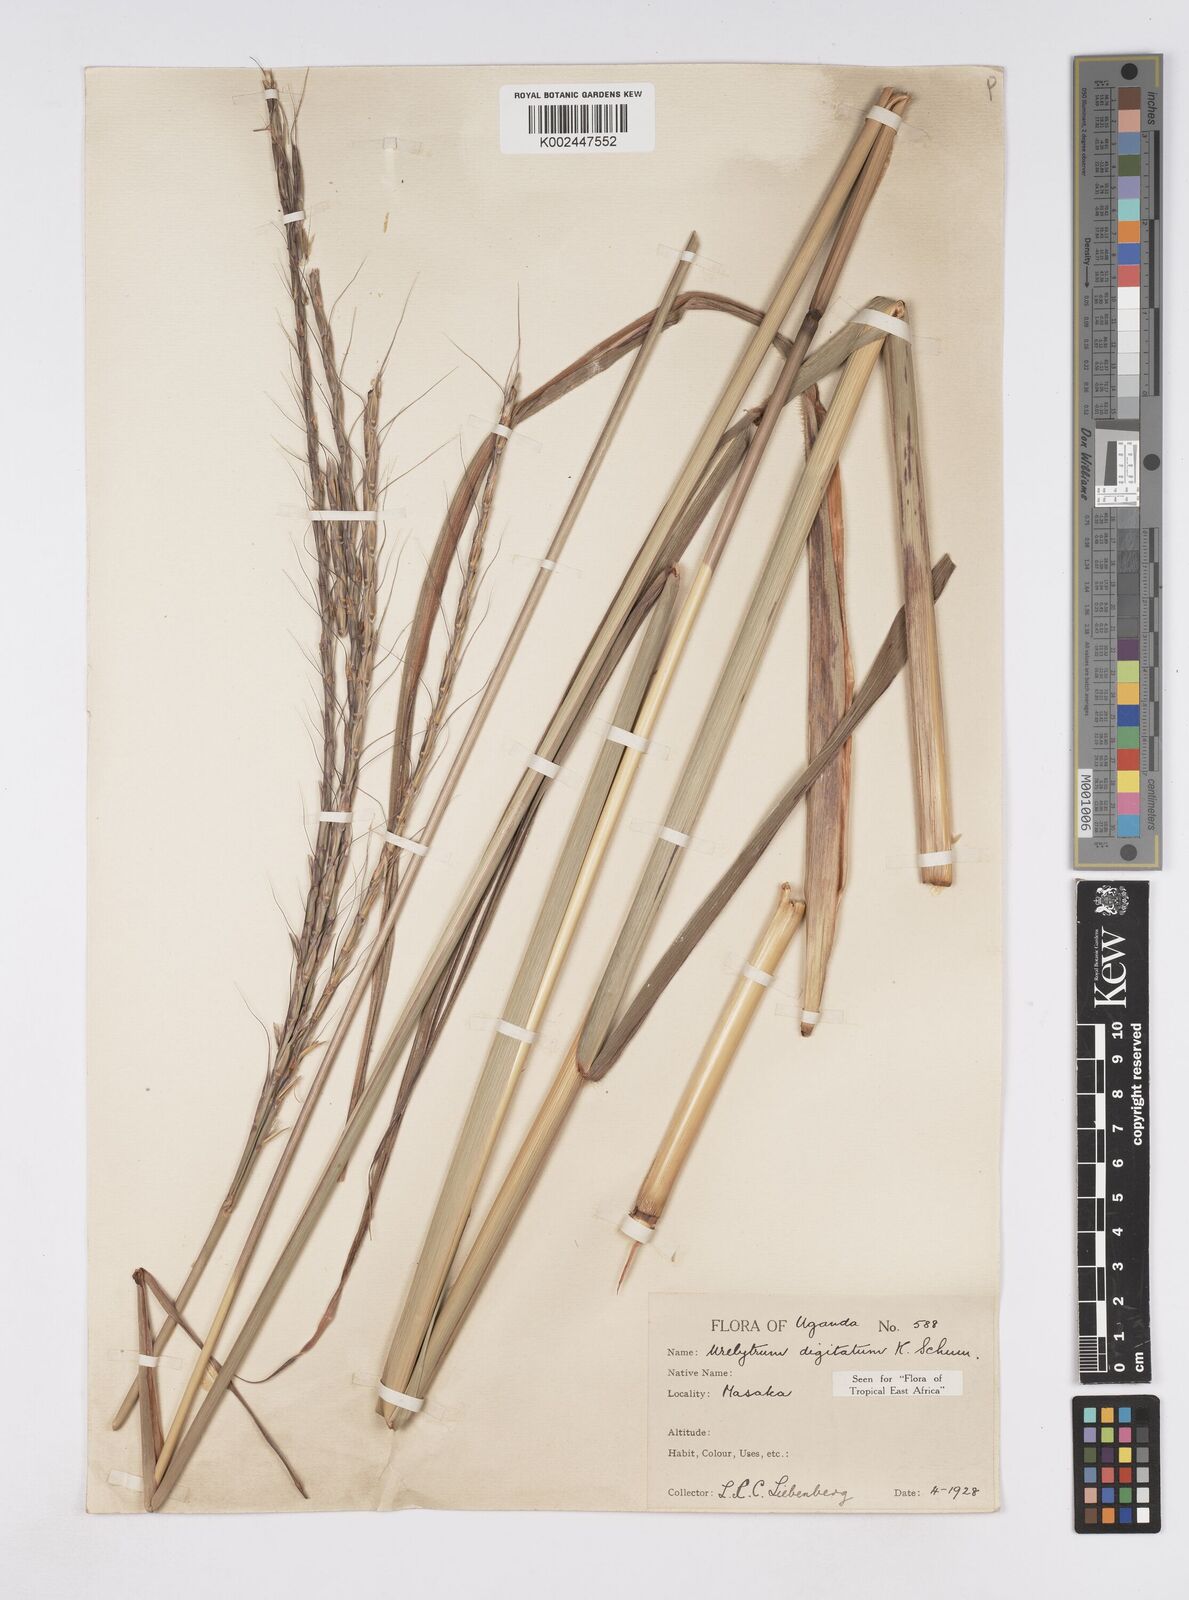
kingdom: Plantae
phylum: Tracheophyta
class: Liliopsida
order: Poales
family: Poaceae
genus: Urelytrum
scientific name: Urelytrum digitatum
